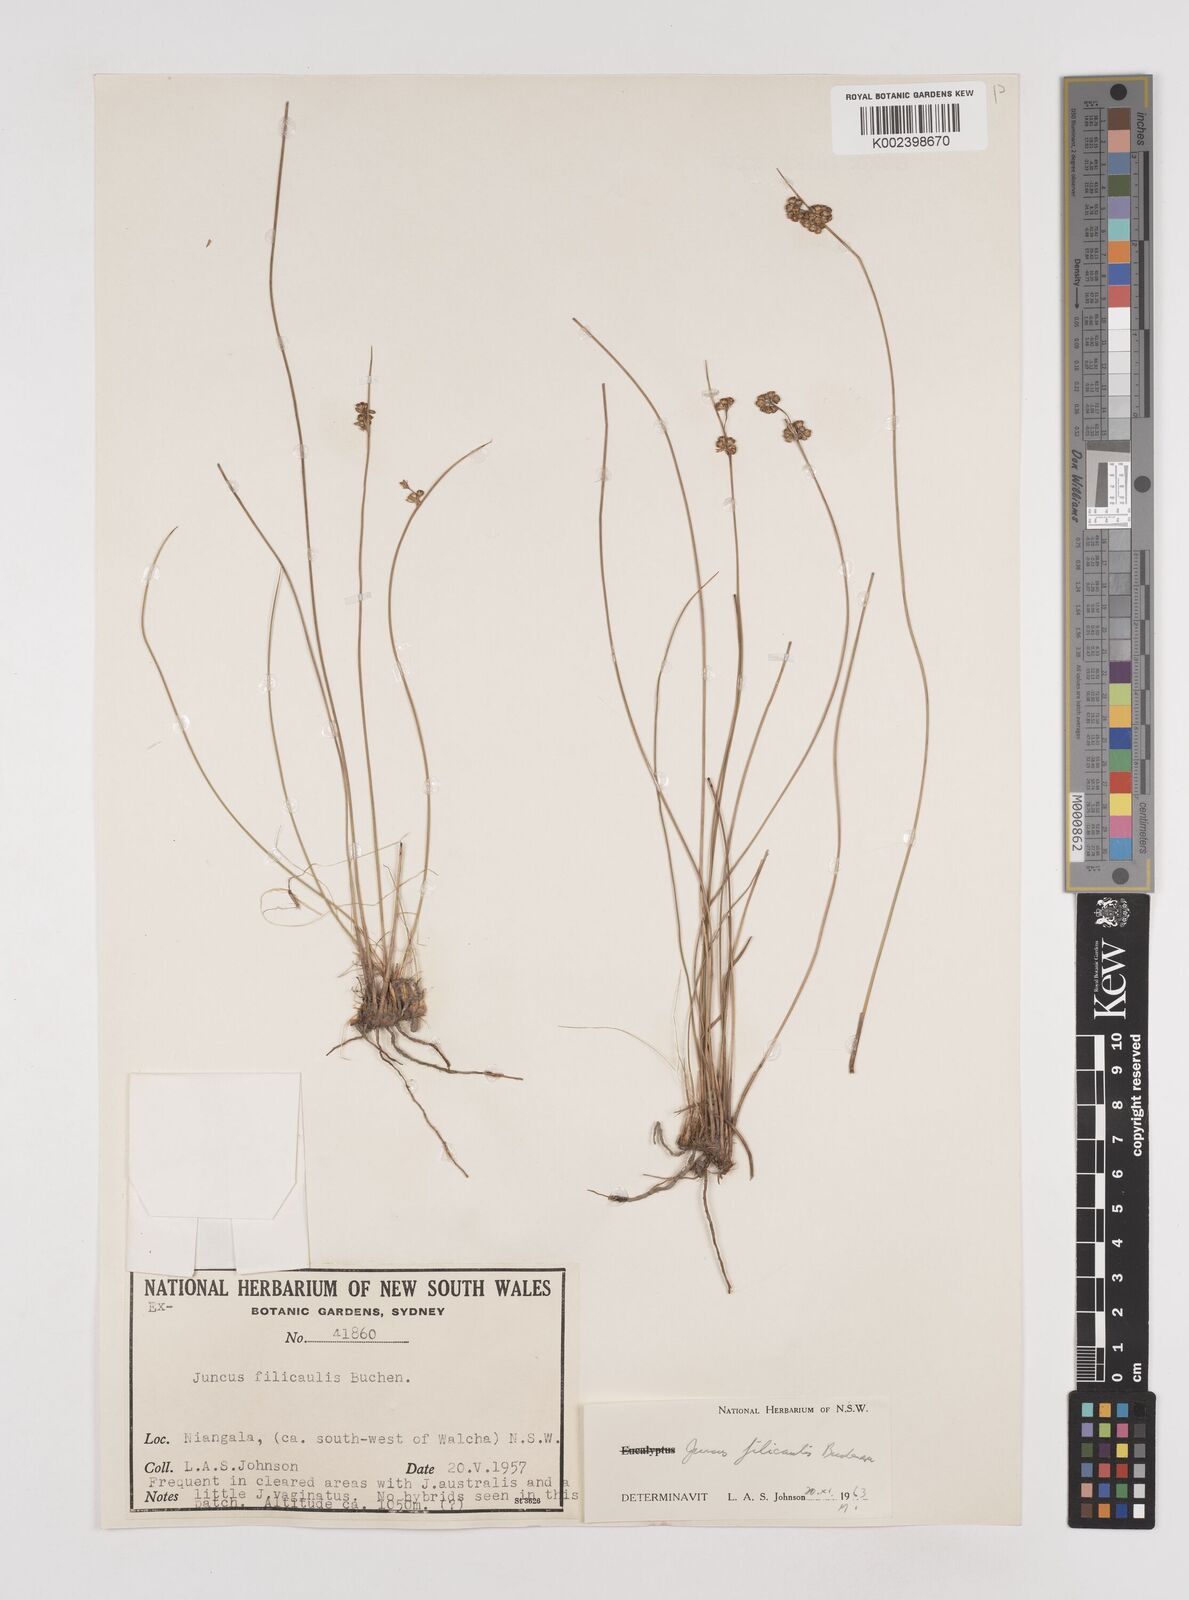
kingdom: Plantae
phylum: Tracheophyta
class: Liliopsida
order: Poales
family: Juncaceae
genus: Juncus
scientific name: Juncus filicaulis
